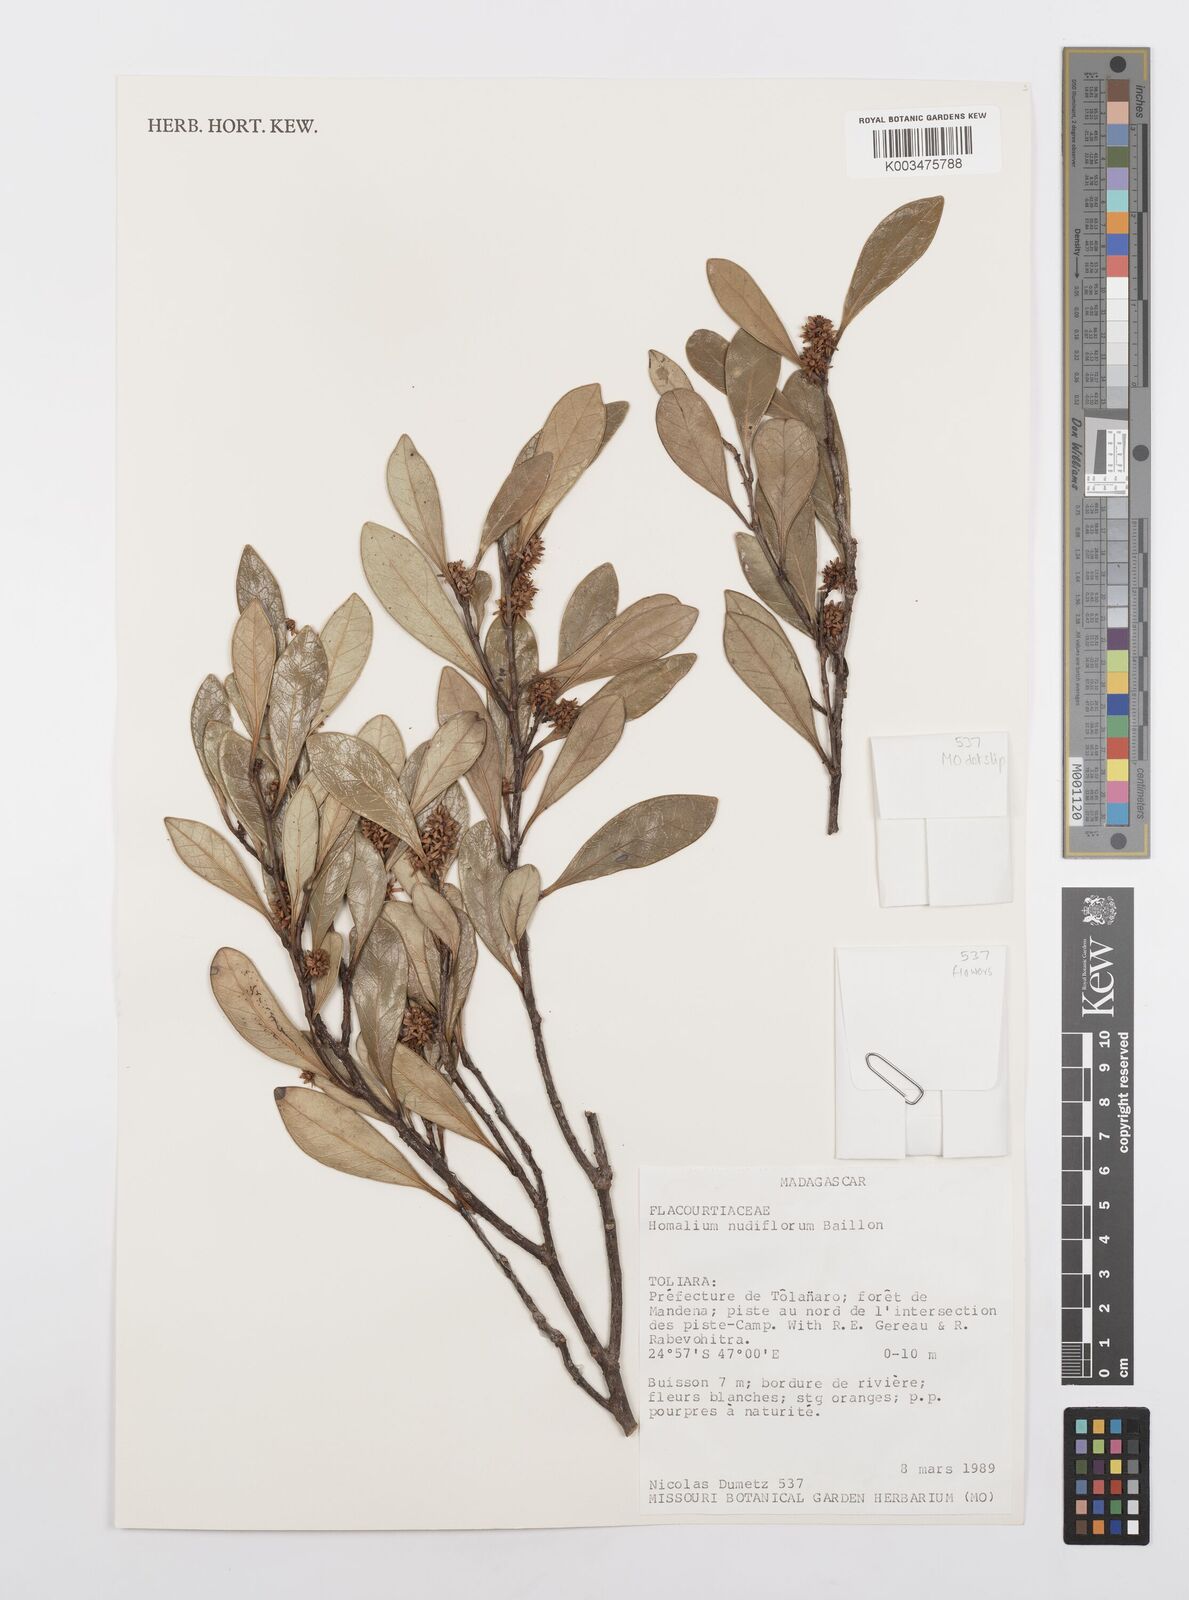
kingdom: Plantae
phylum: Tracheophyta
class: Magnoliopsida
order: Malpighiales
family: Salicaceae
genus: Homalium
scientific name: Homalium nudiflorum
